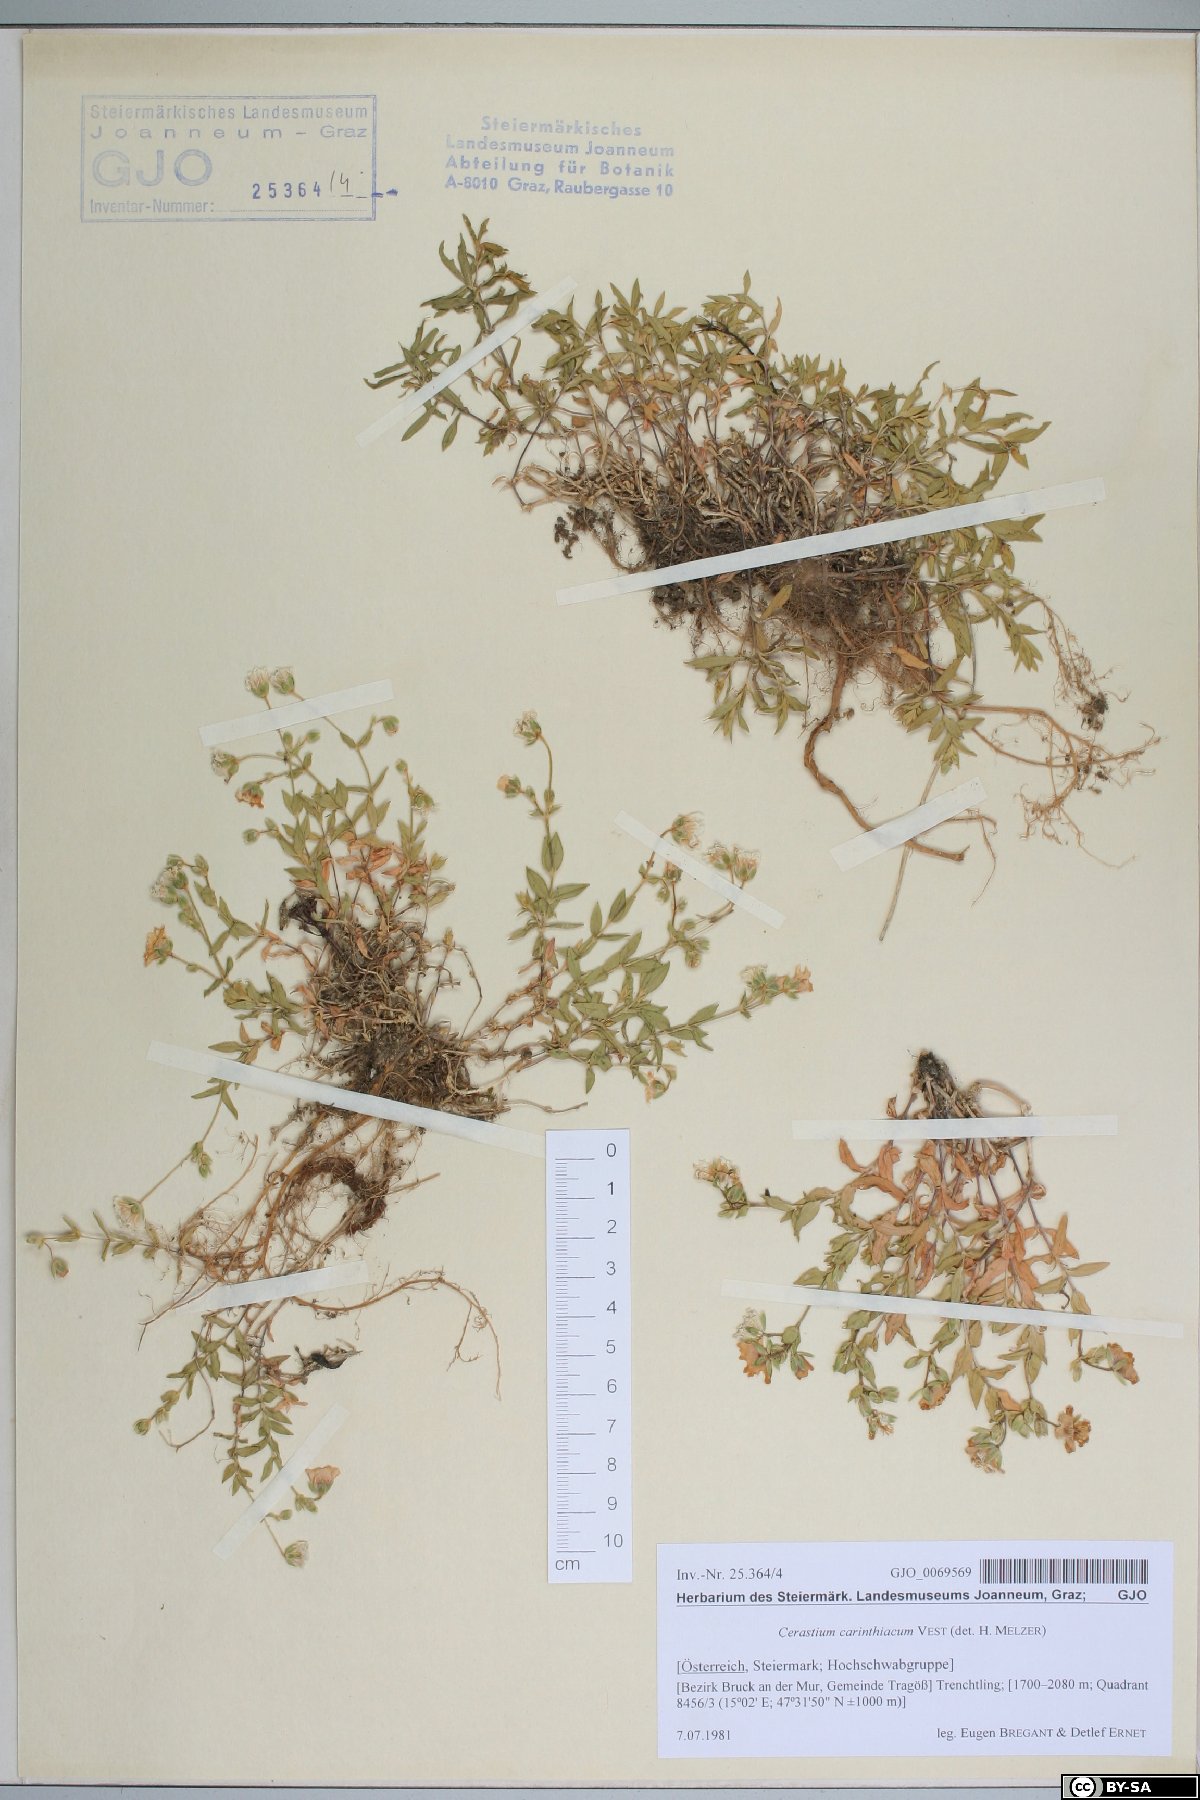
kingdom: Plantae
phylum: Tracheophyta
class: Magnoliopsida
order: Caryophyllales
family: Caryophyllaceae
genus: Cerastium
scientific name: Cerastium carinthiacum
